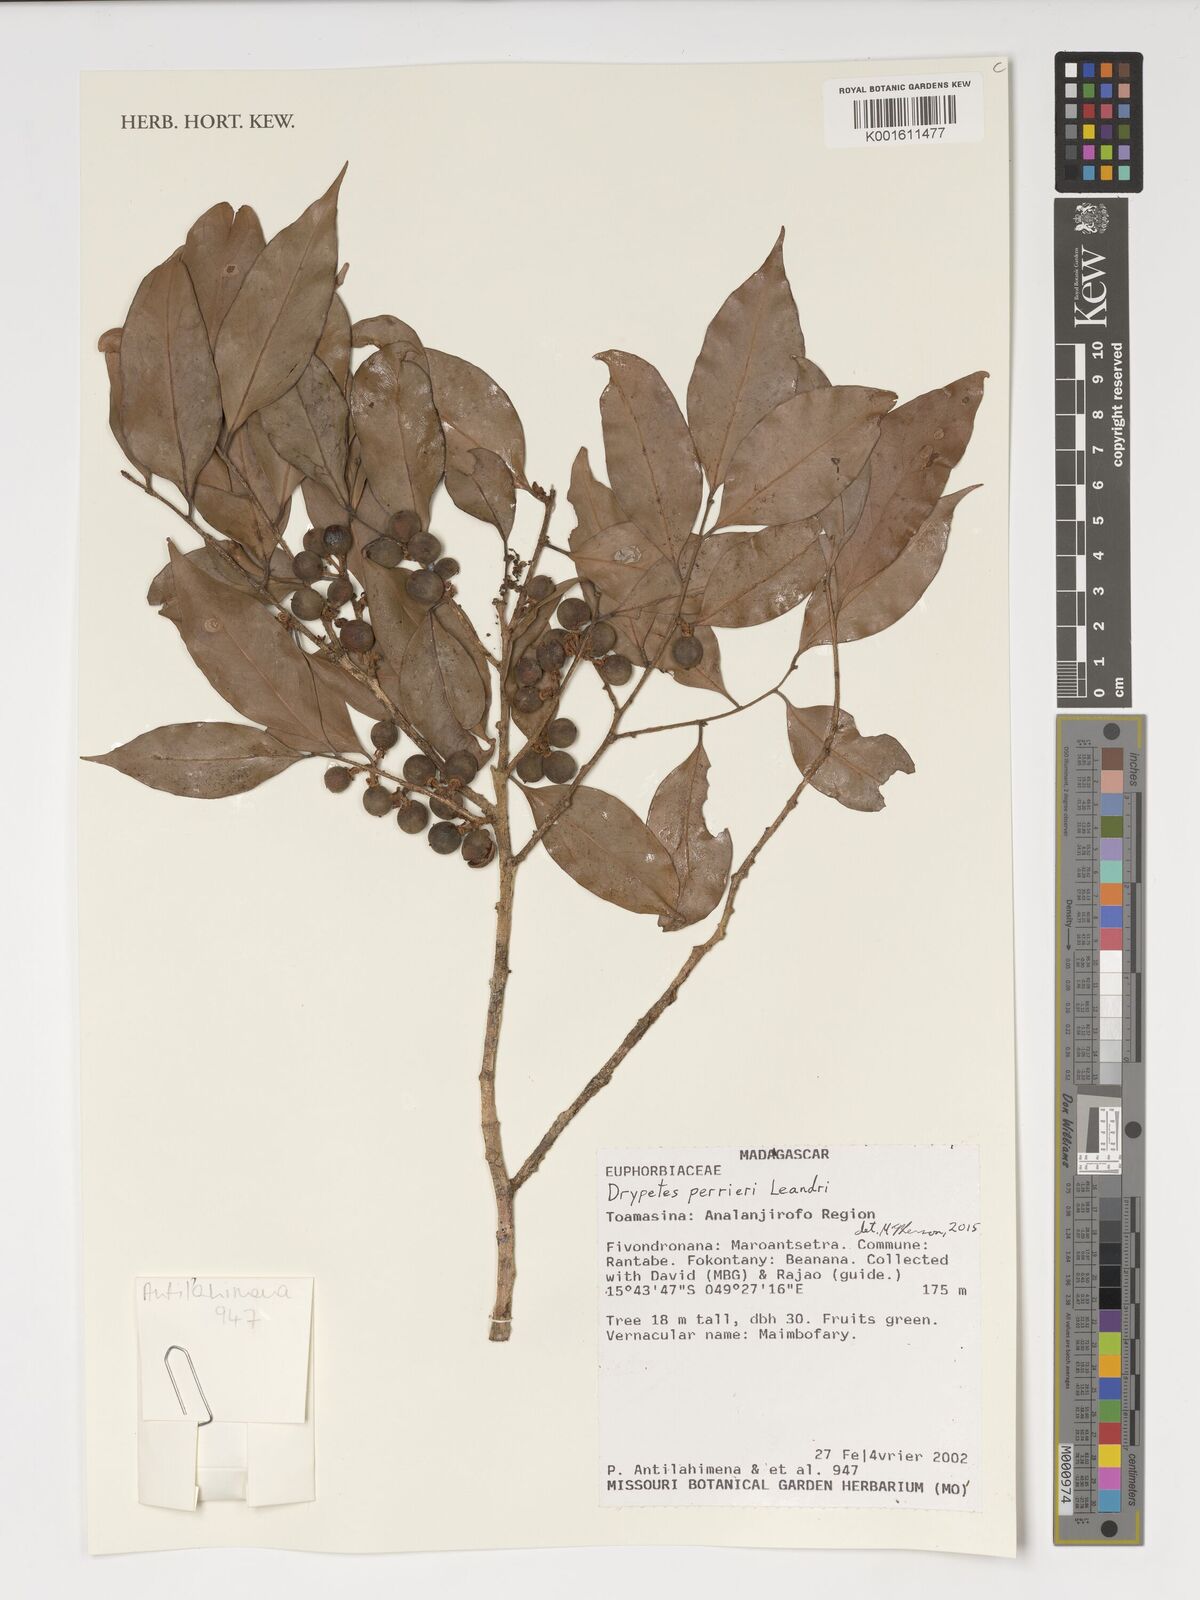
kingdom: Plantae
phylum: Tracheophyta
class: Magnoliopsida
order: Malpighiales
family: Putranjivaceae
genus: Drypetes
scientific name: Drypetes perrieri
